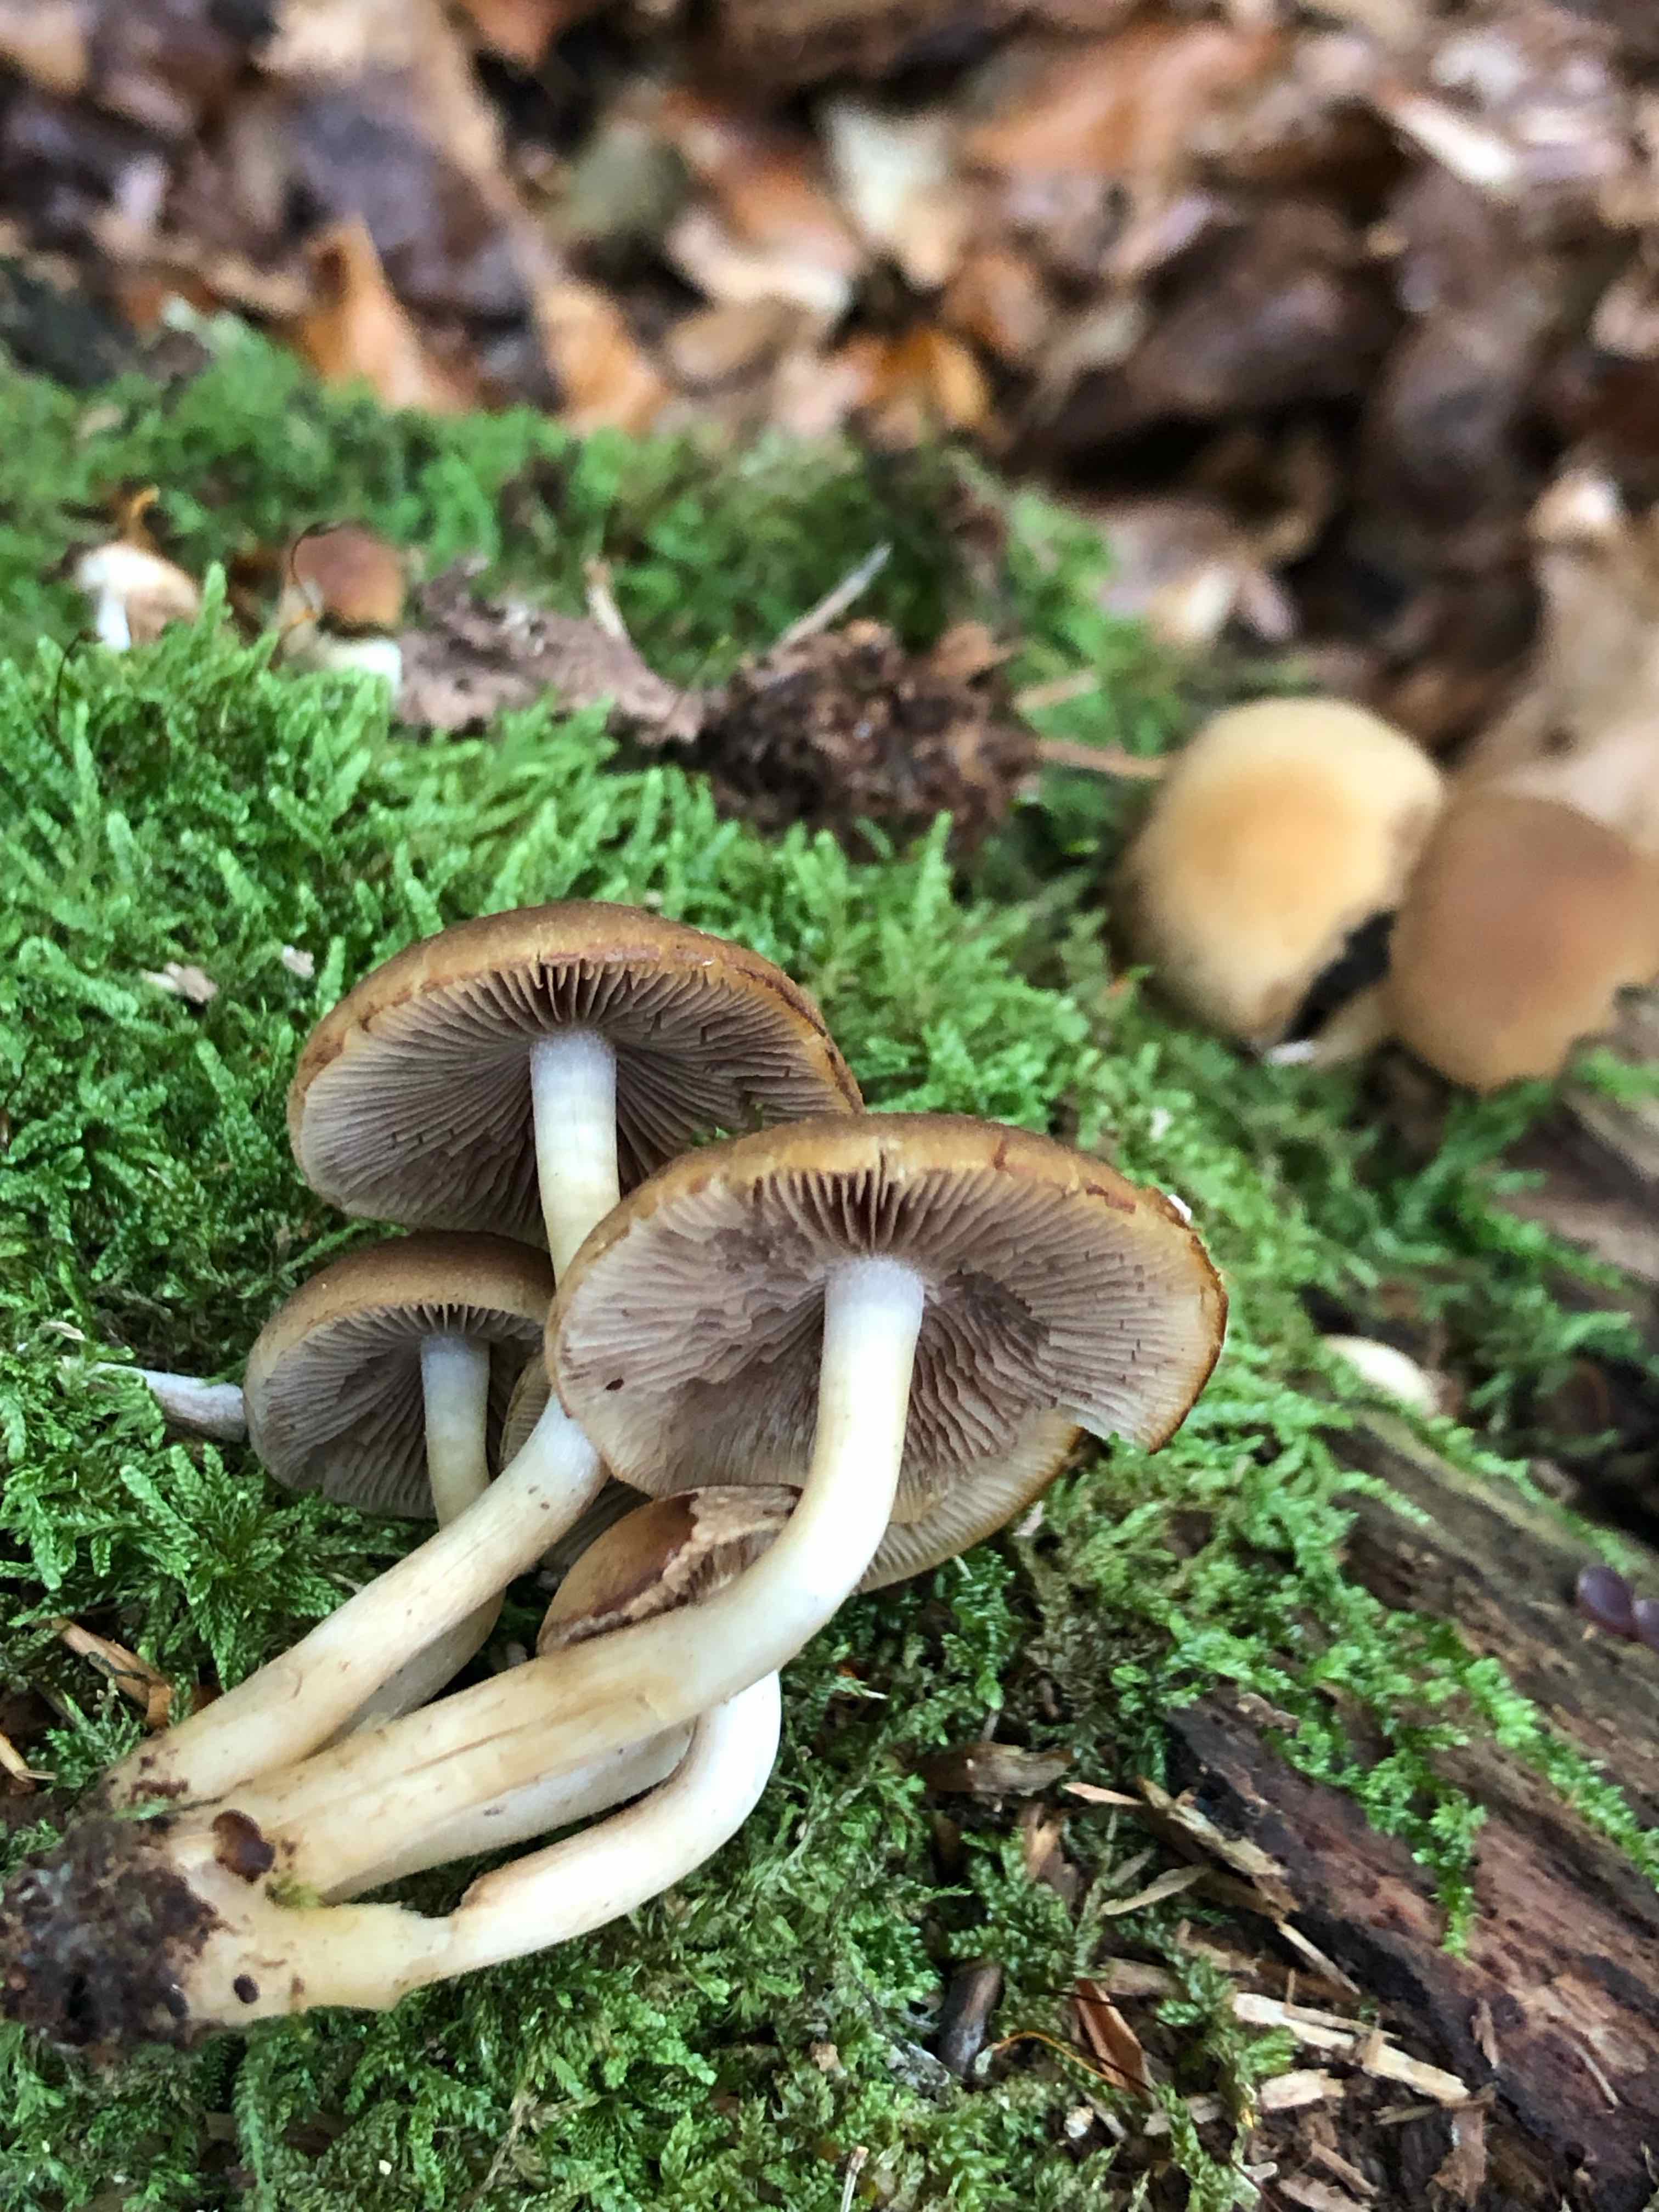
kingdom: Fungi
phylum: Basidiomycota
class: Agaricomycetes
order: Agaricales
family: Psathyrellaceae
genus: Psathyrella
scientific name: Psathyrella piluliformis
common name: lysstokket mørkhat
